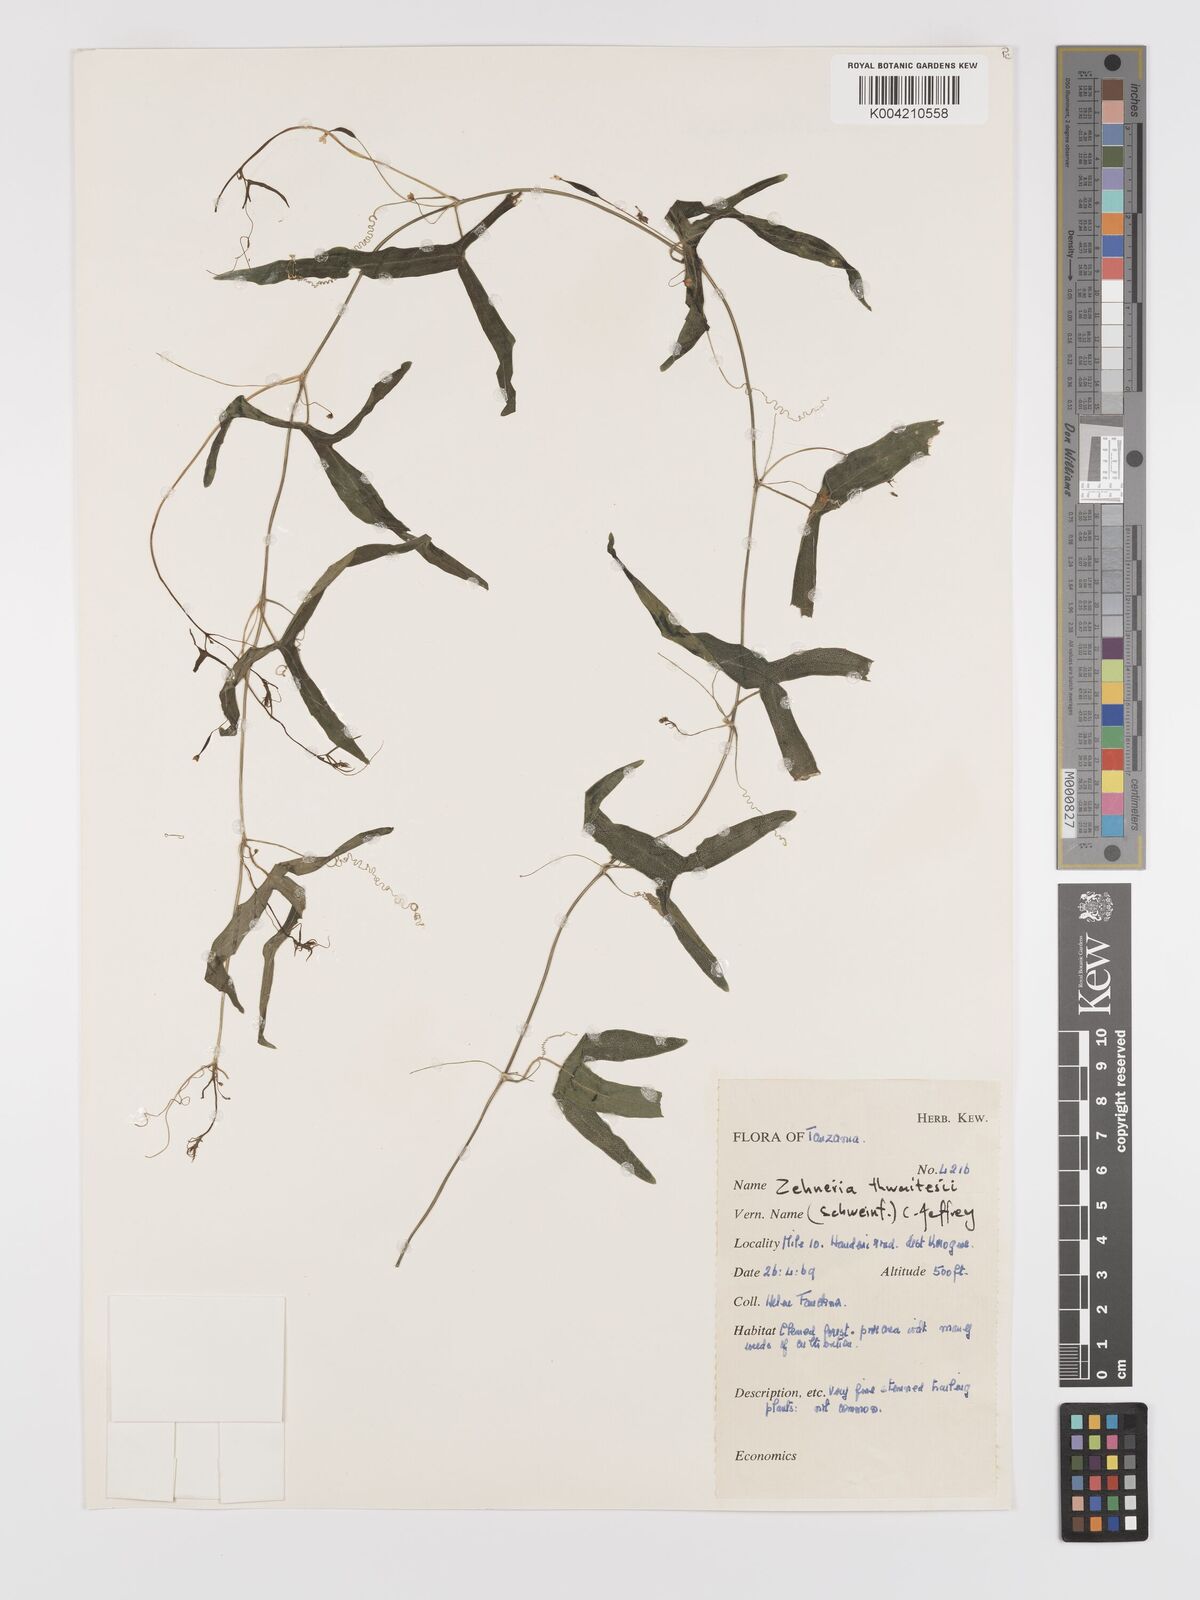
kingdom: Plantae
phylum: Tracheophyta
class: Magnoliopsida
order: Cucurbitales
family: Cucurbitaceae
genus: Zehneria
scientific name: Zehneria thwaitesii
